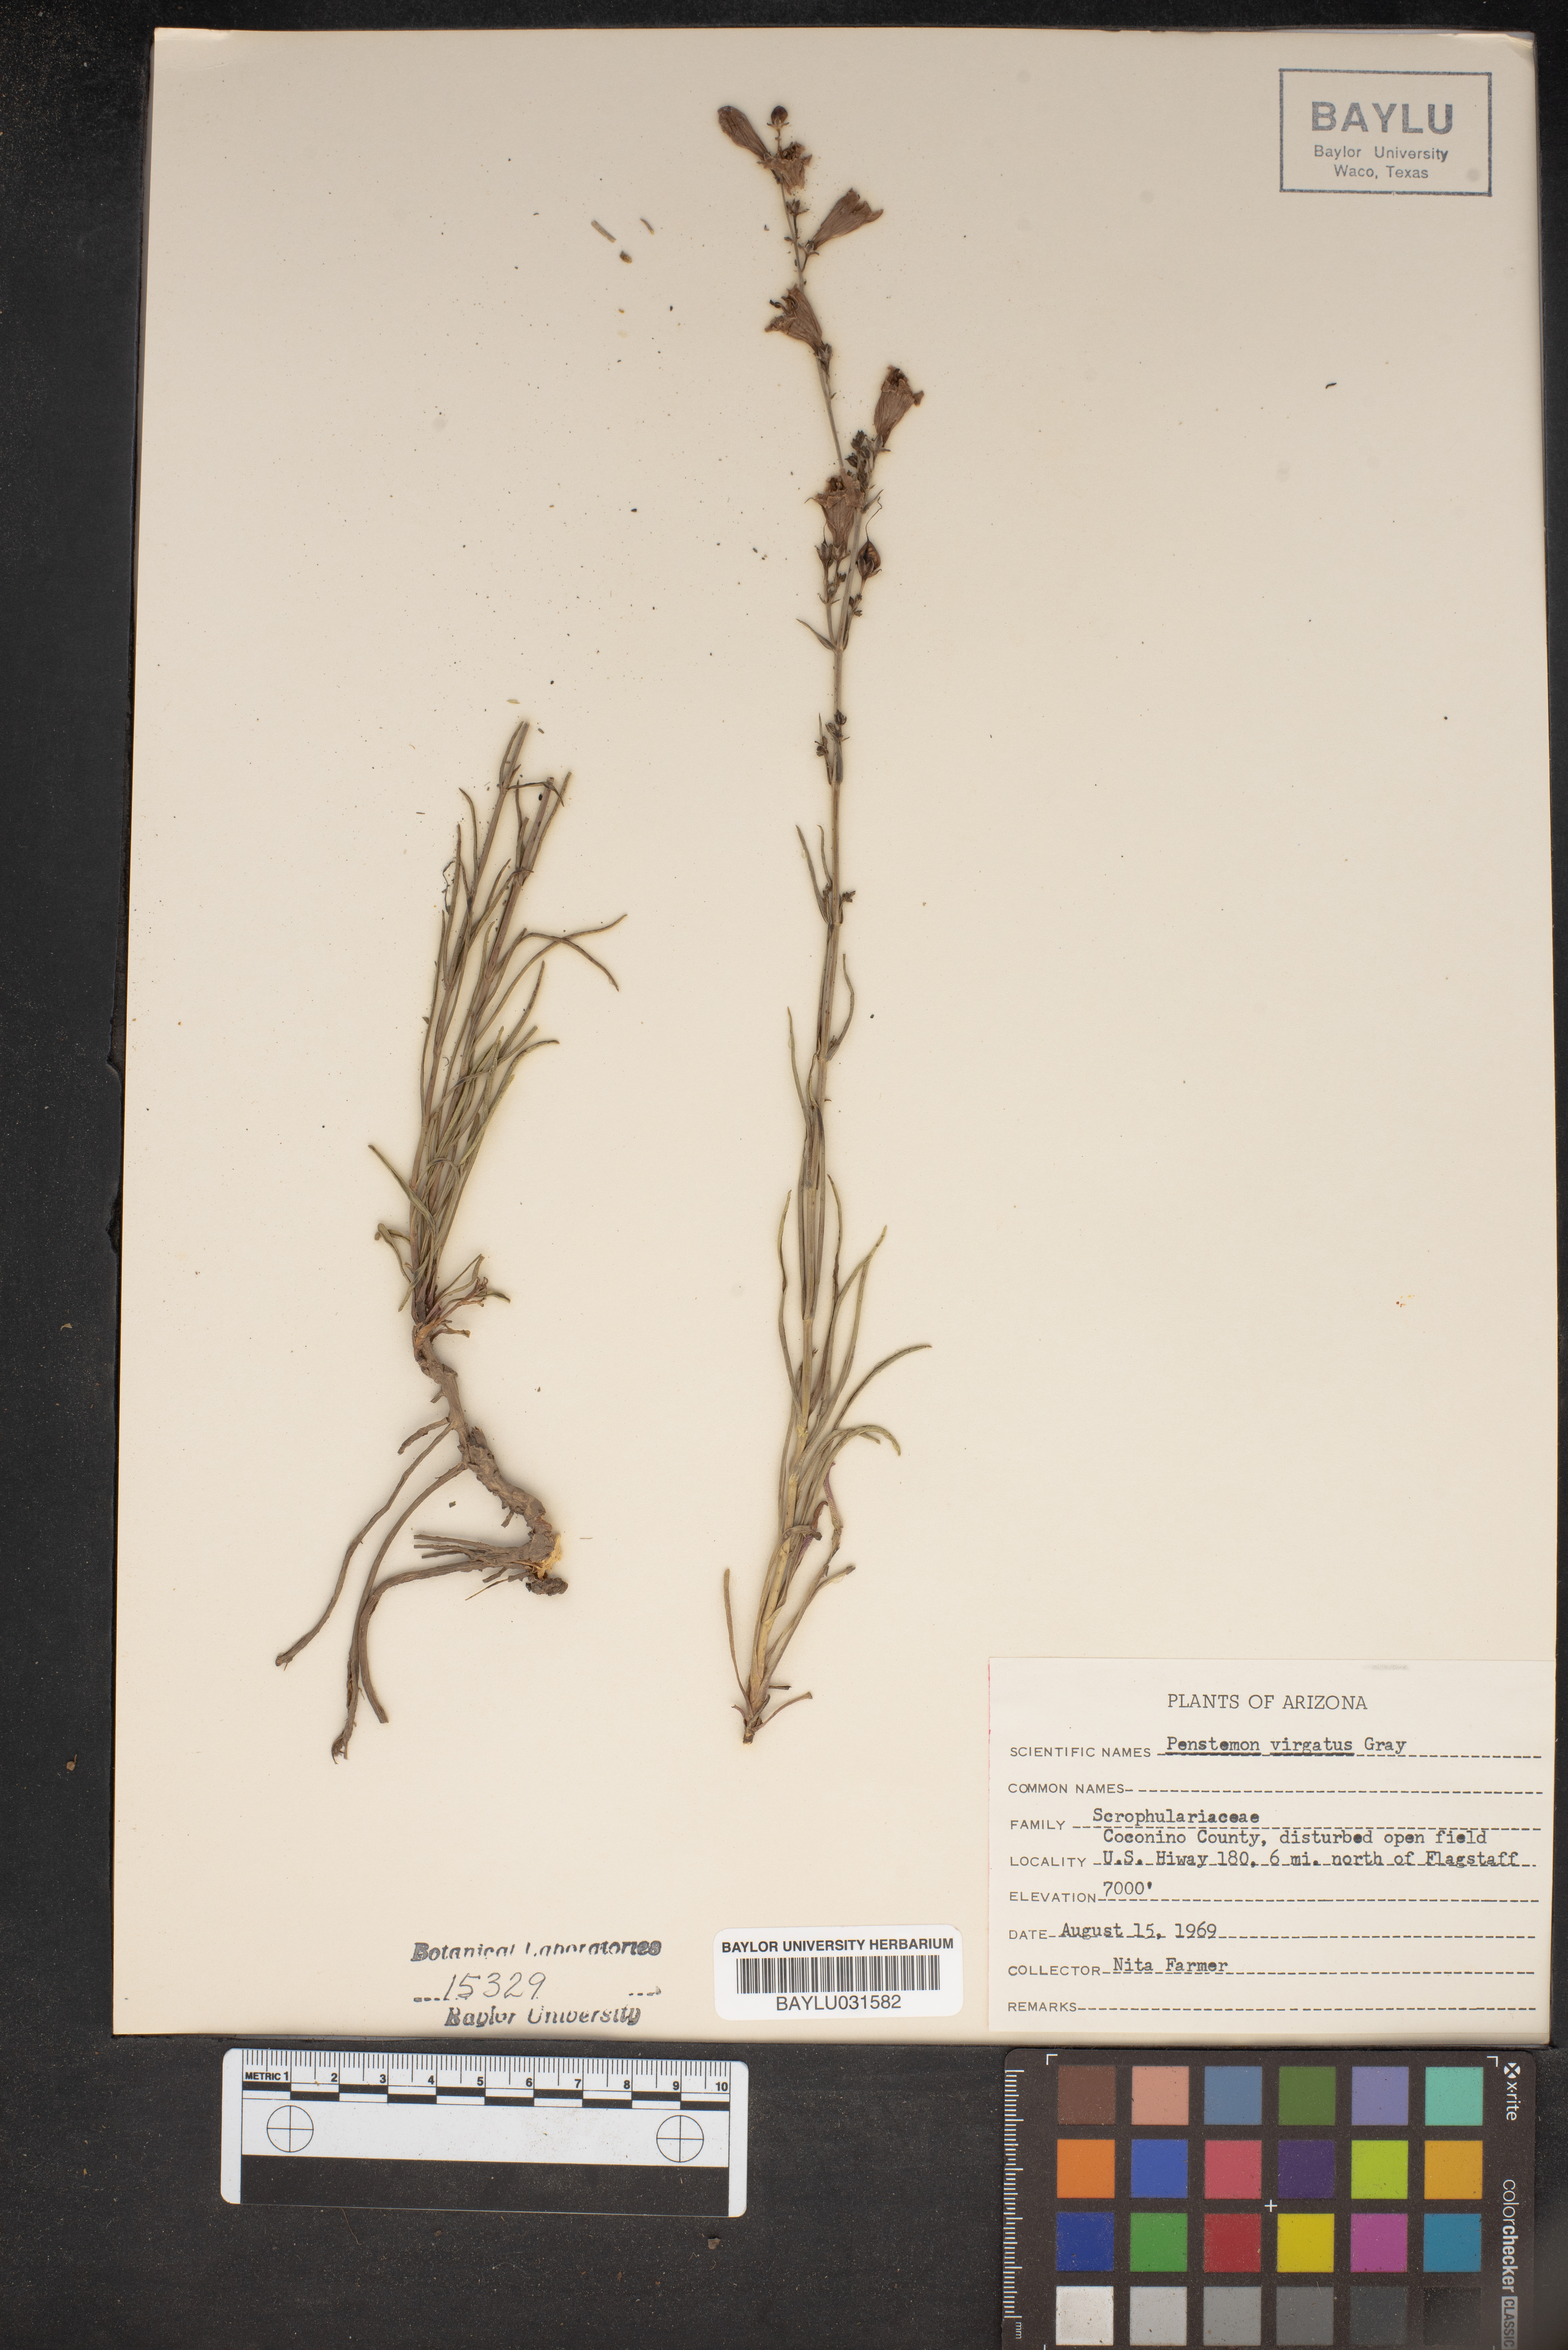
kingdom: Plantae
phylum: Tracheophyta
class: Magnoliopsida
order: Lamiales
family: Plantaginaceae
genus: Penstemon
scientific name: Penstemon virgatus
